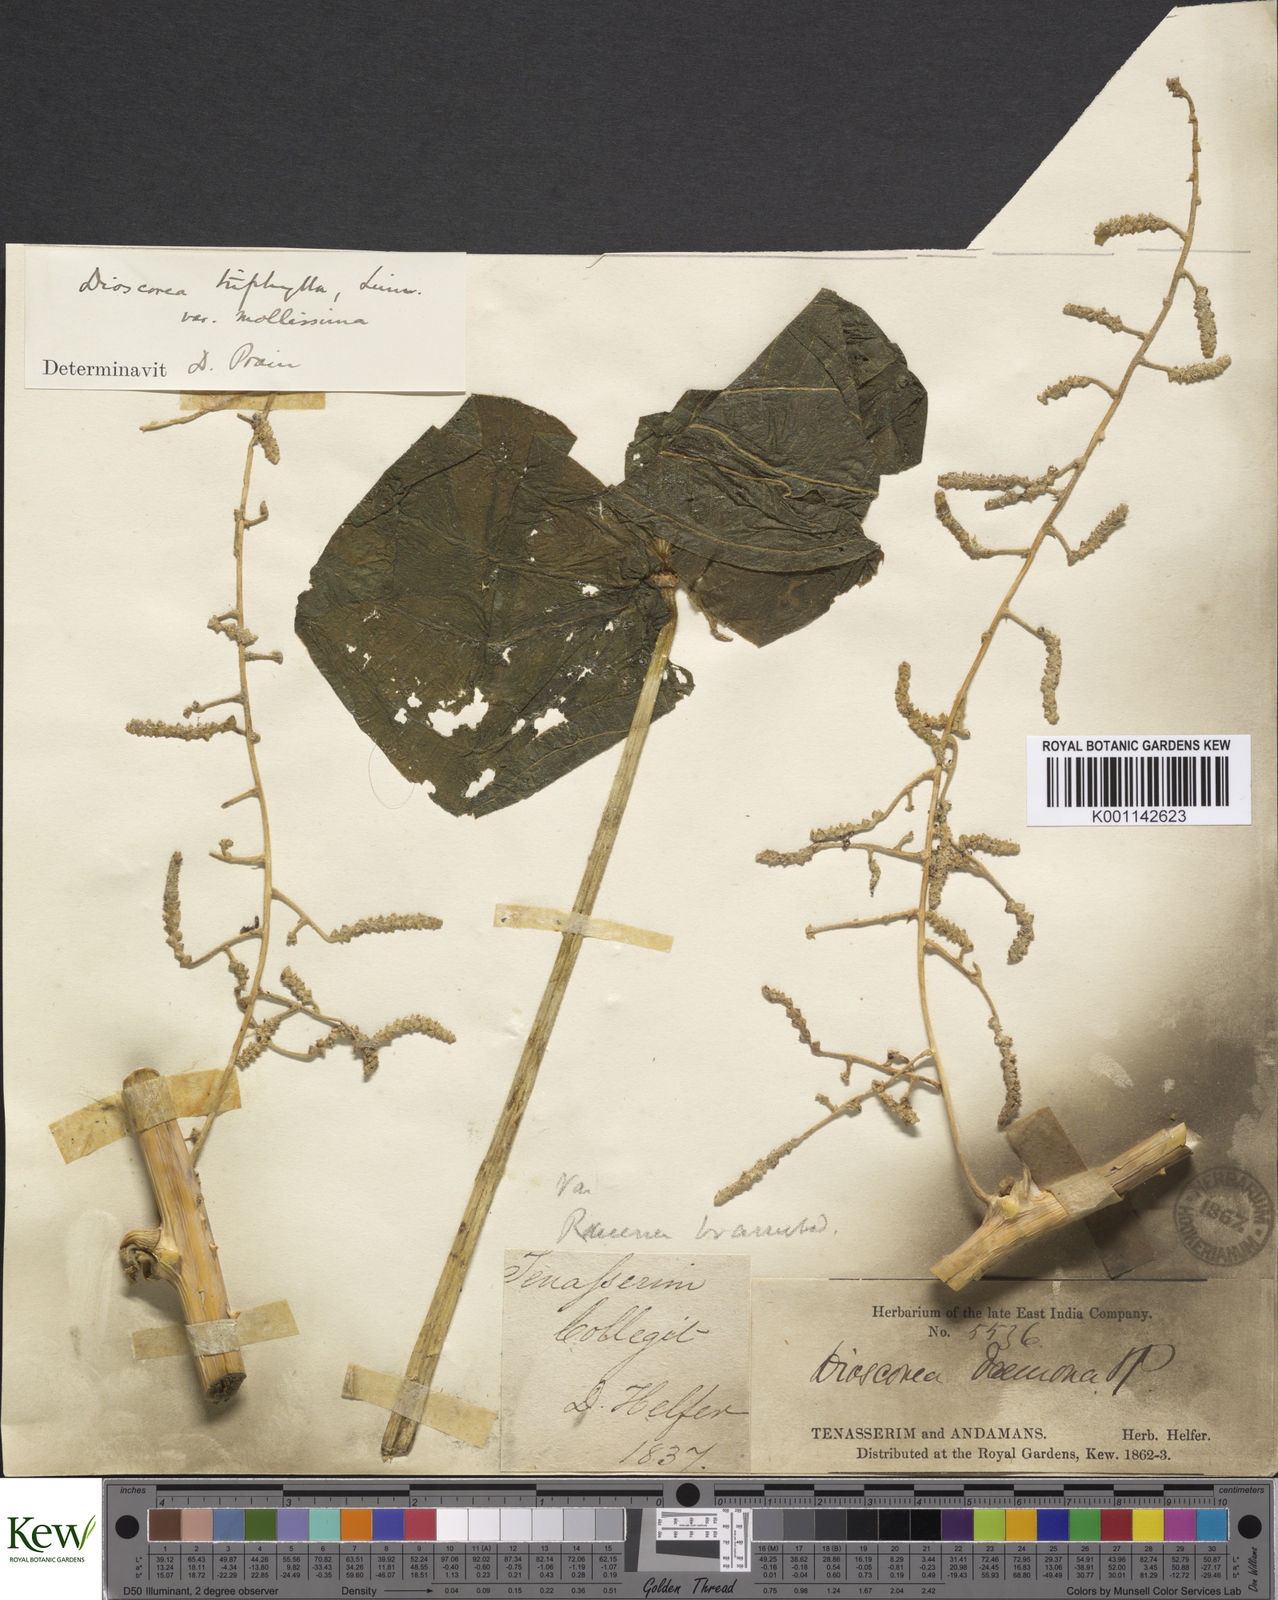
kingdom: Plantae
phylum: Tracheophyta
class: Liliopsida
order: Dioscoreales
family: Dioscoreaceae
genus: Dioscorea
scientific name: Dioscorea pentaphylla
